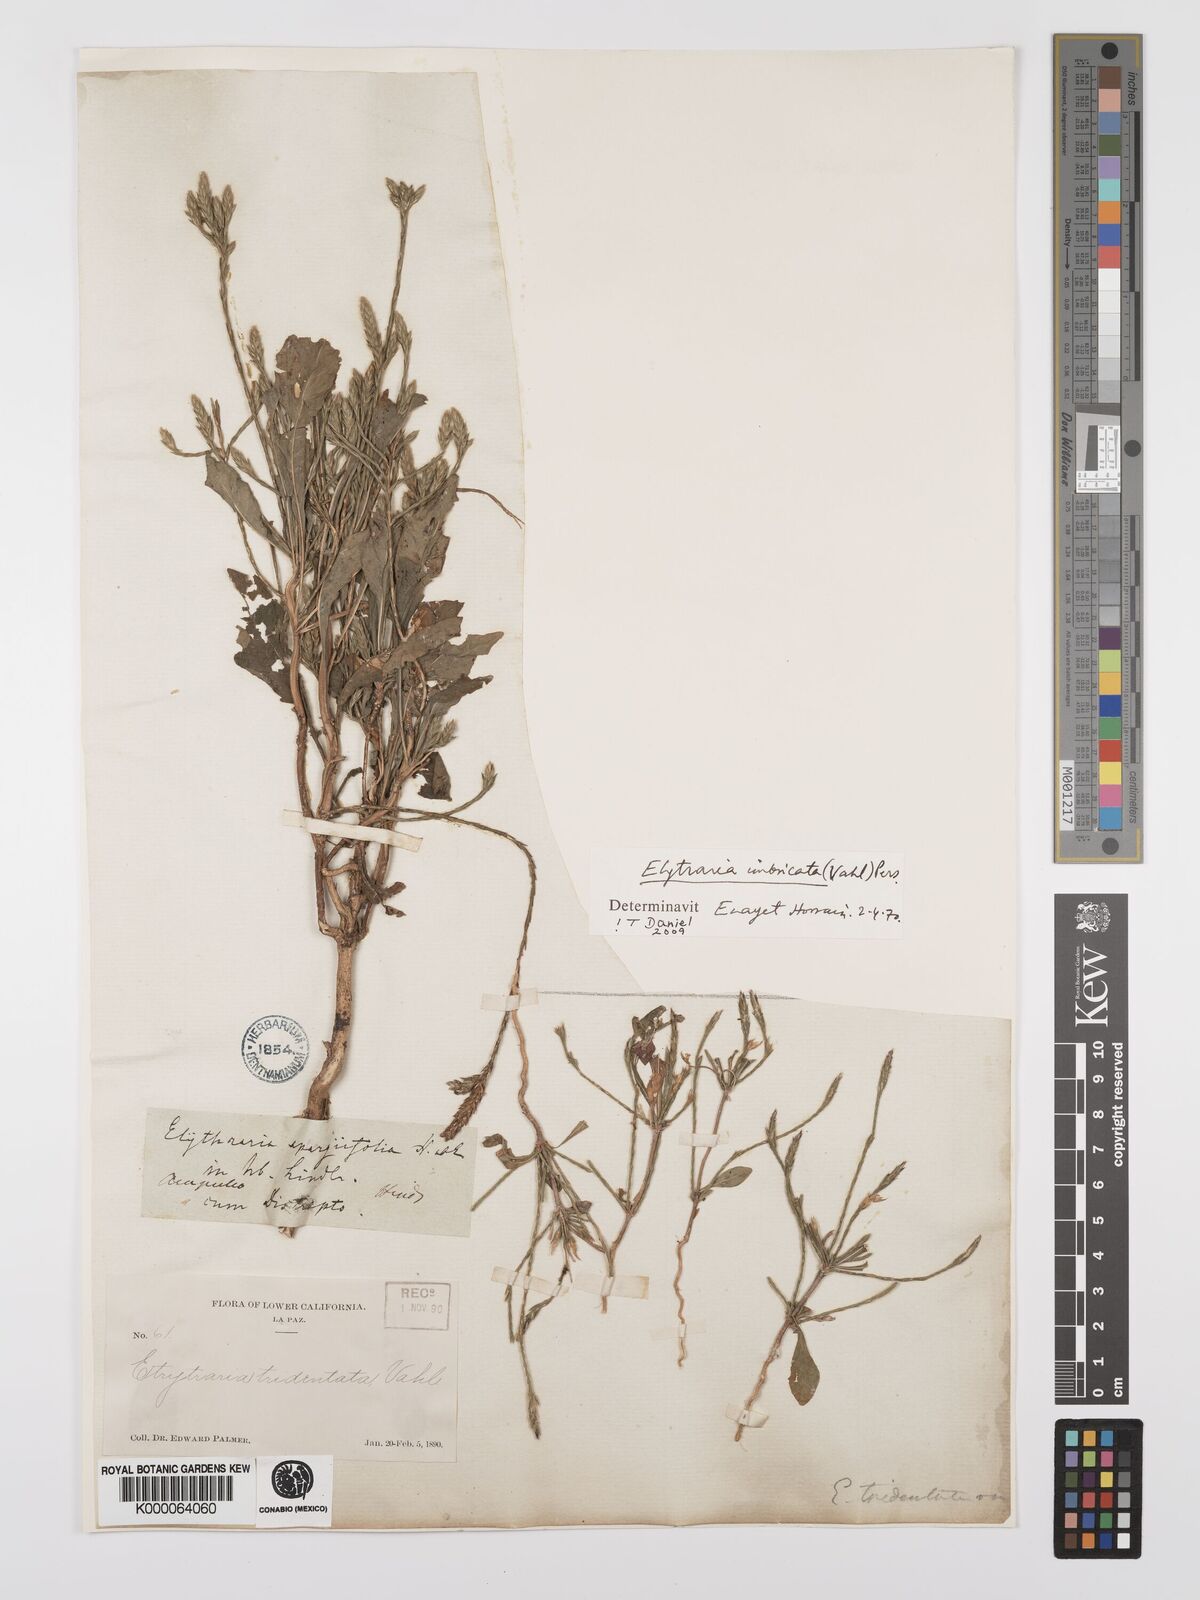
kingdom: Plantae
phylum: Tracheophyta
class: Magnoliopsida
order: Lamiales
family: Acanthaceae
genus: Elytraria
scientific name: Elytraria imbricata
